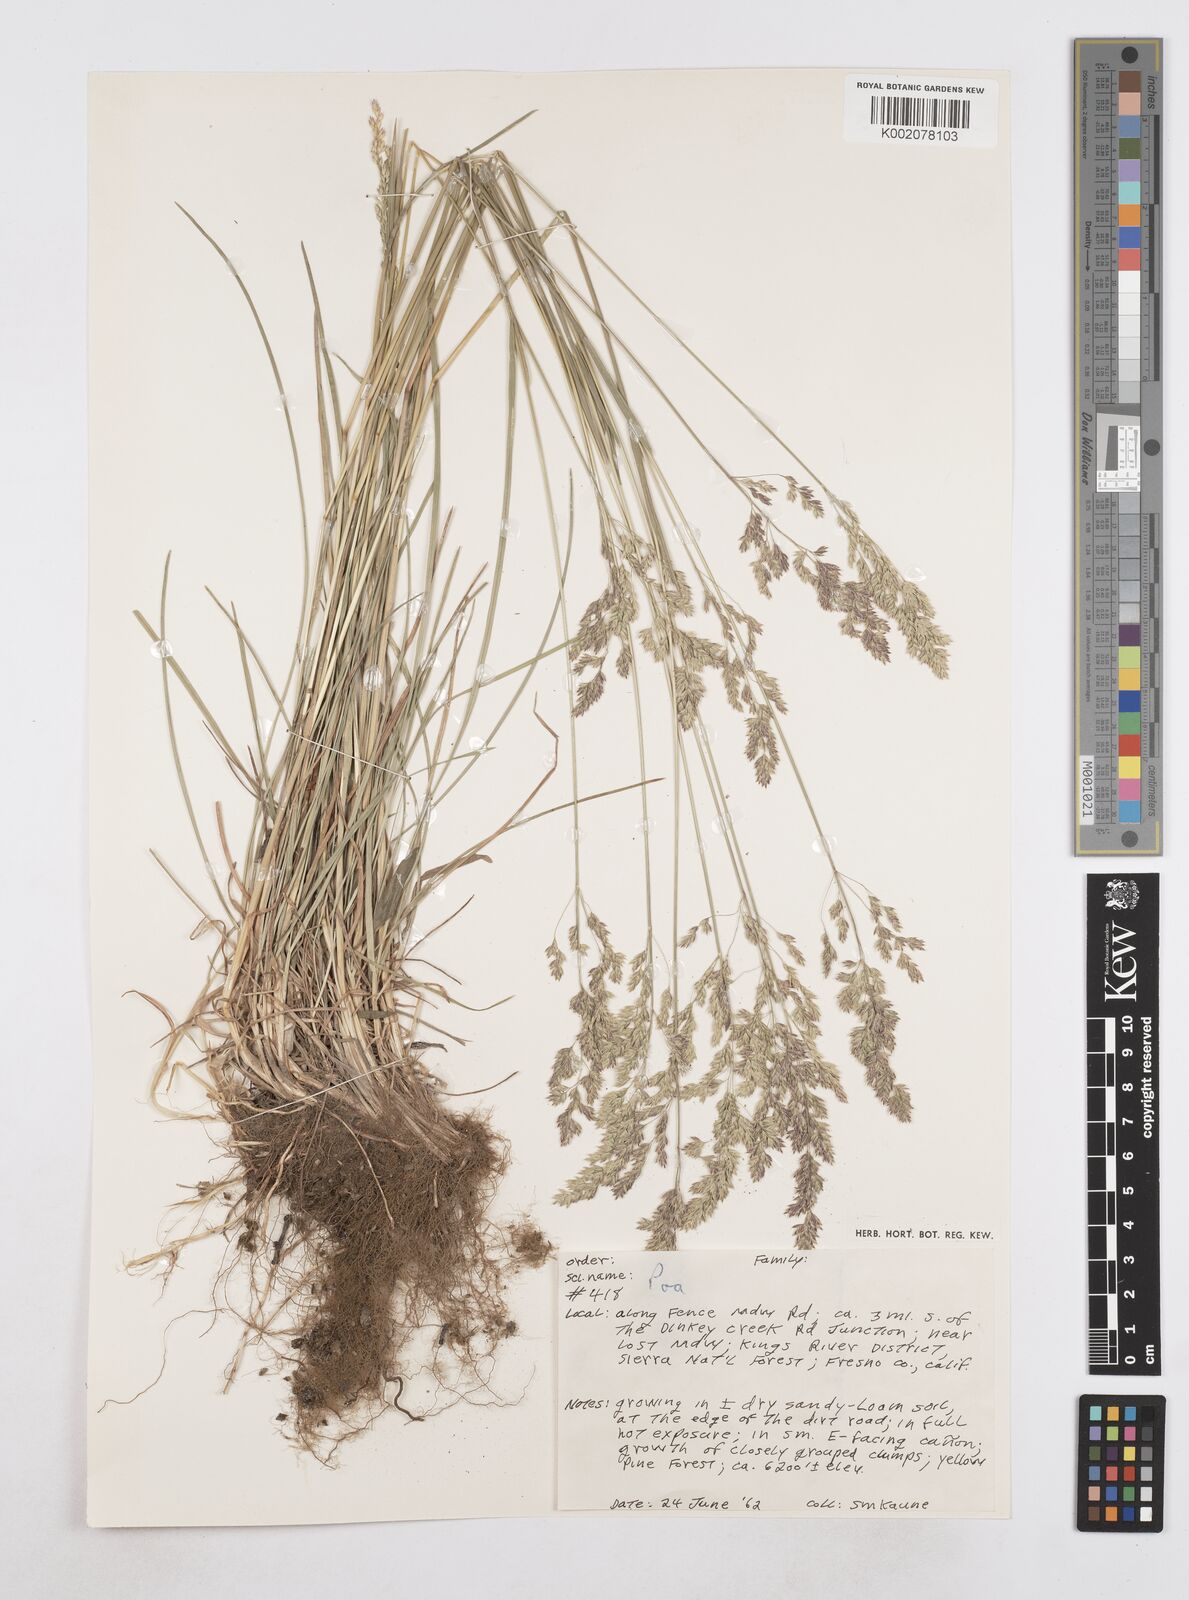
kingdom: Plantae
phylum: Tracheophyta
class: Liliopsida
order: Poales
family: Poaceae
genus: Poa
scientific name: Poa
